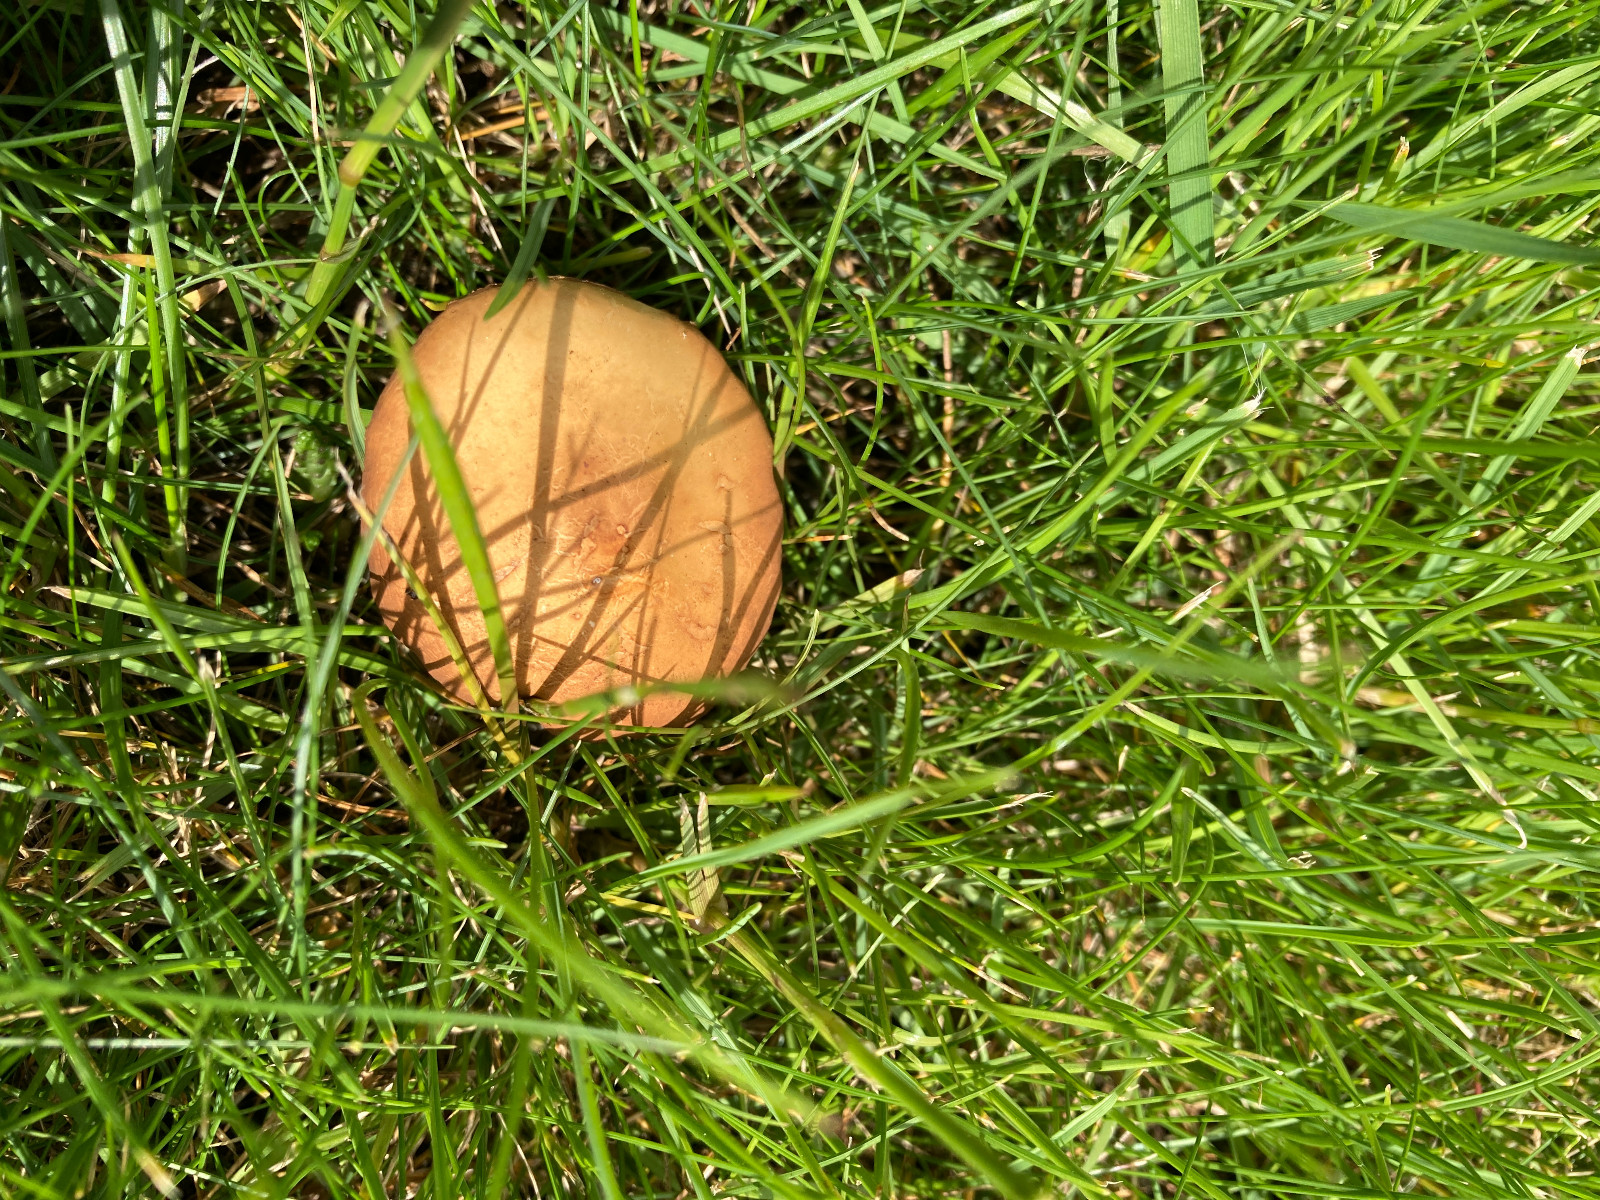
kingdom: Fungi
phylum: Basidiomycota
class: Agaricomycetes
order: Agaricales
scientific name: Agaricales
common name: champignonordenen
